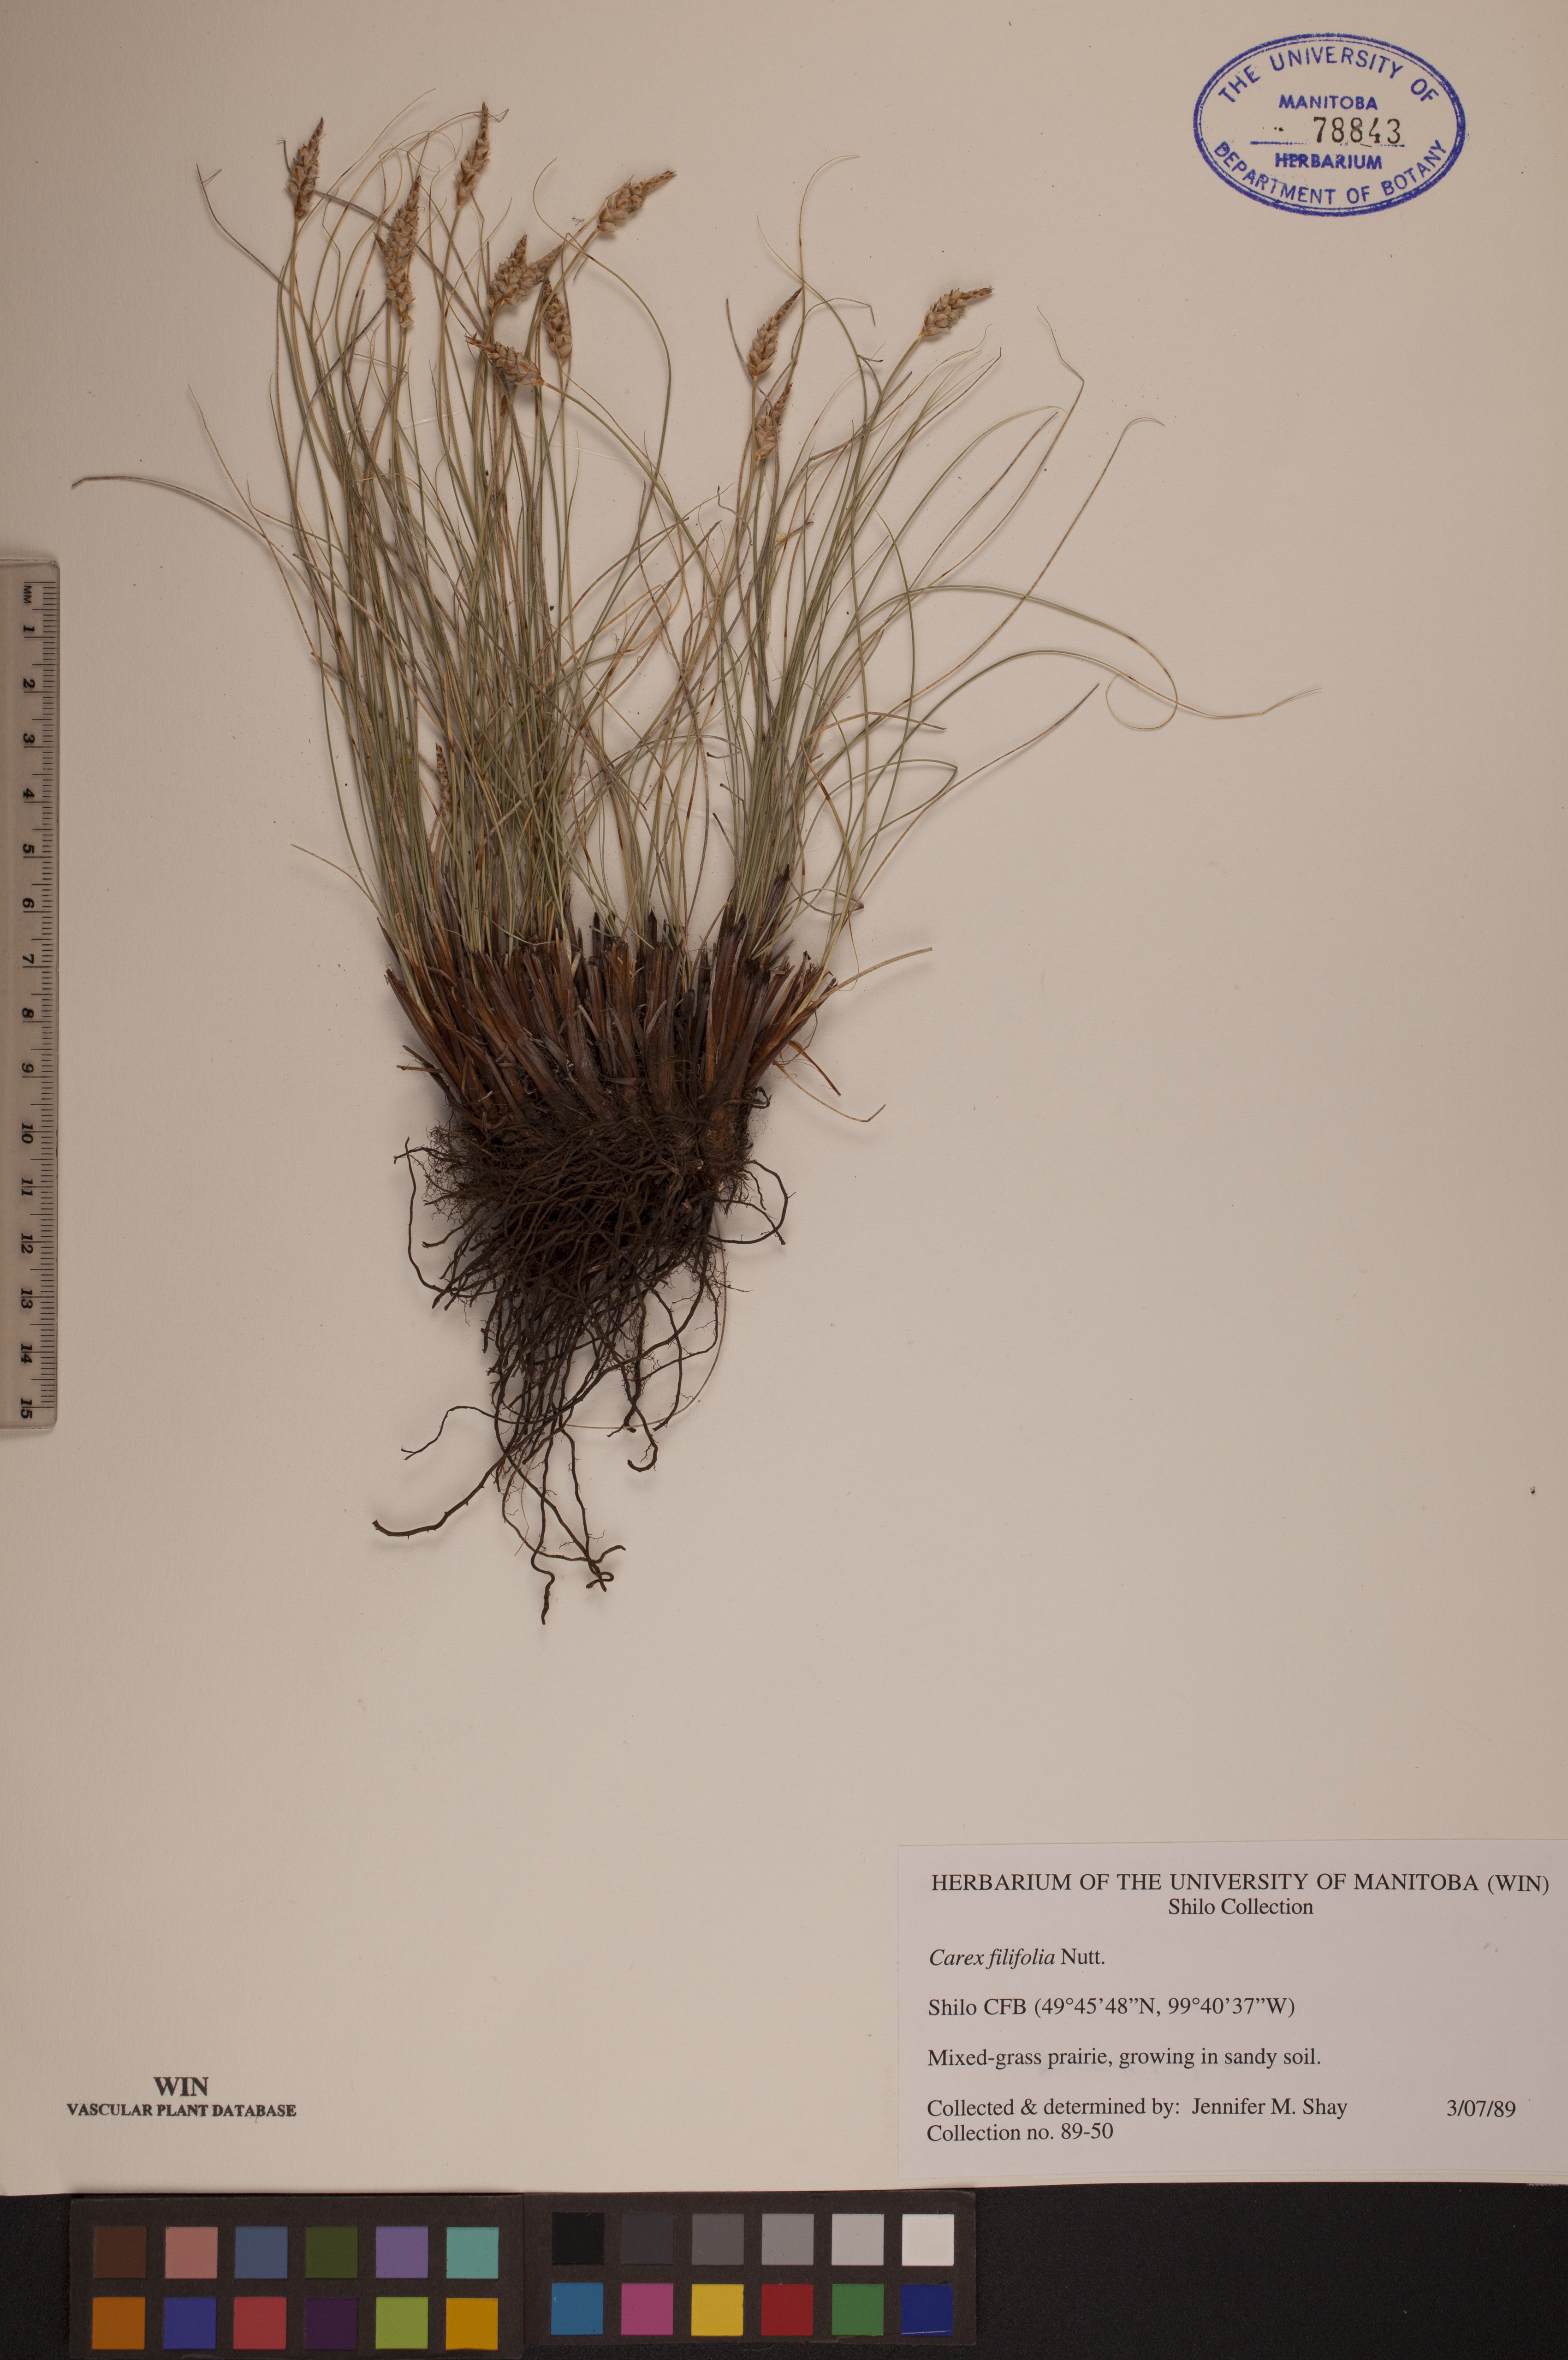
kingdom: Plantae
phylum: Tracheophyta
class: Liliopsida
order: Poales
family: Cyperaceae
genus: Carex
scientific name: Carex filifolia
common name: Threadleaf sedge
